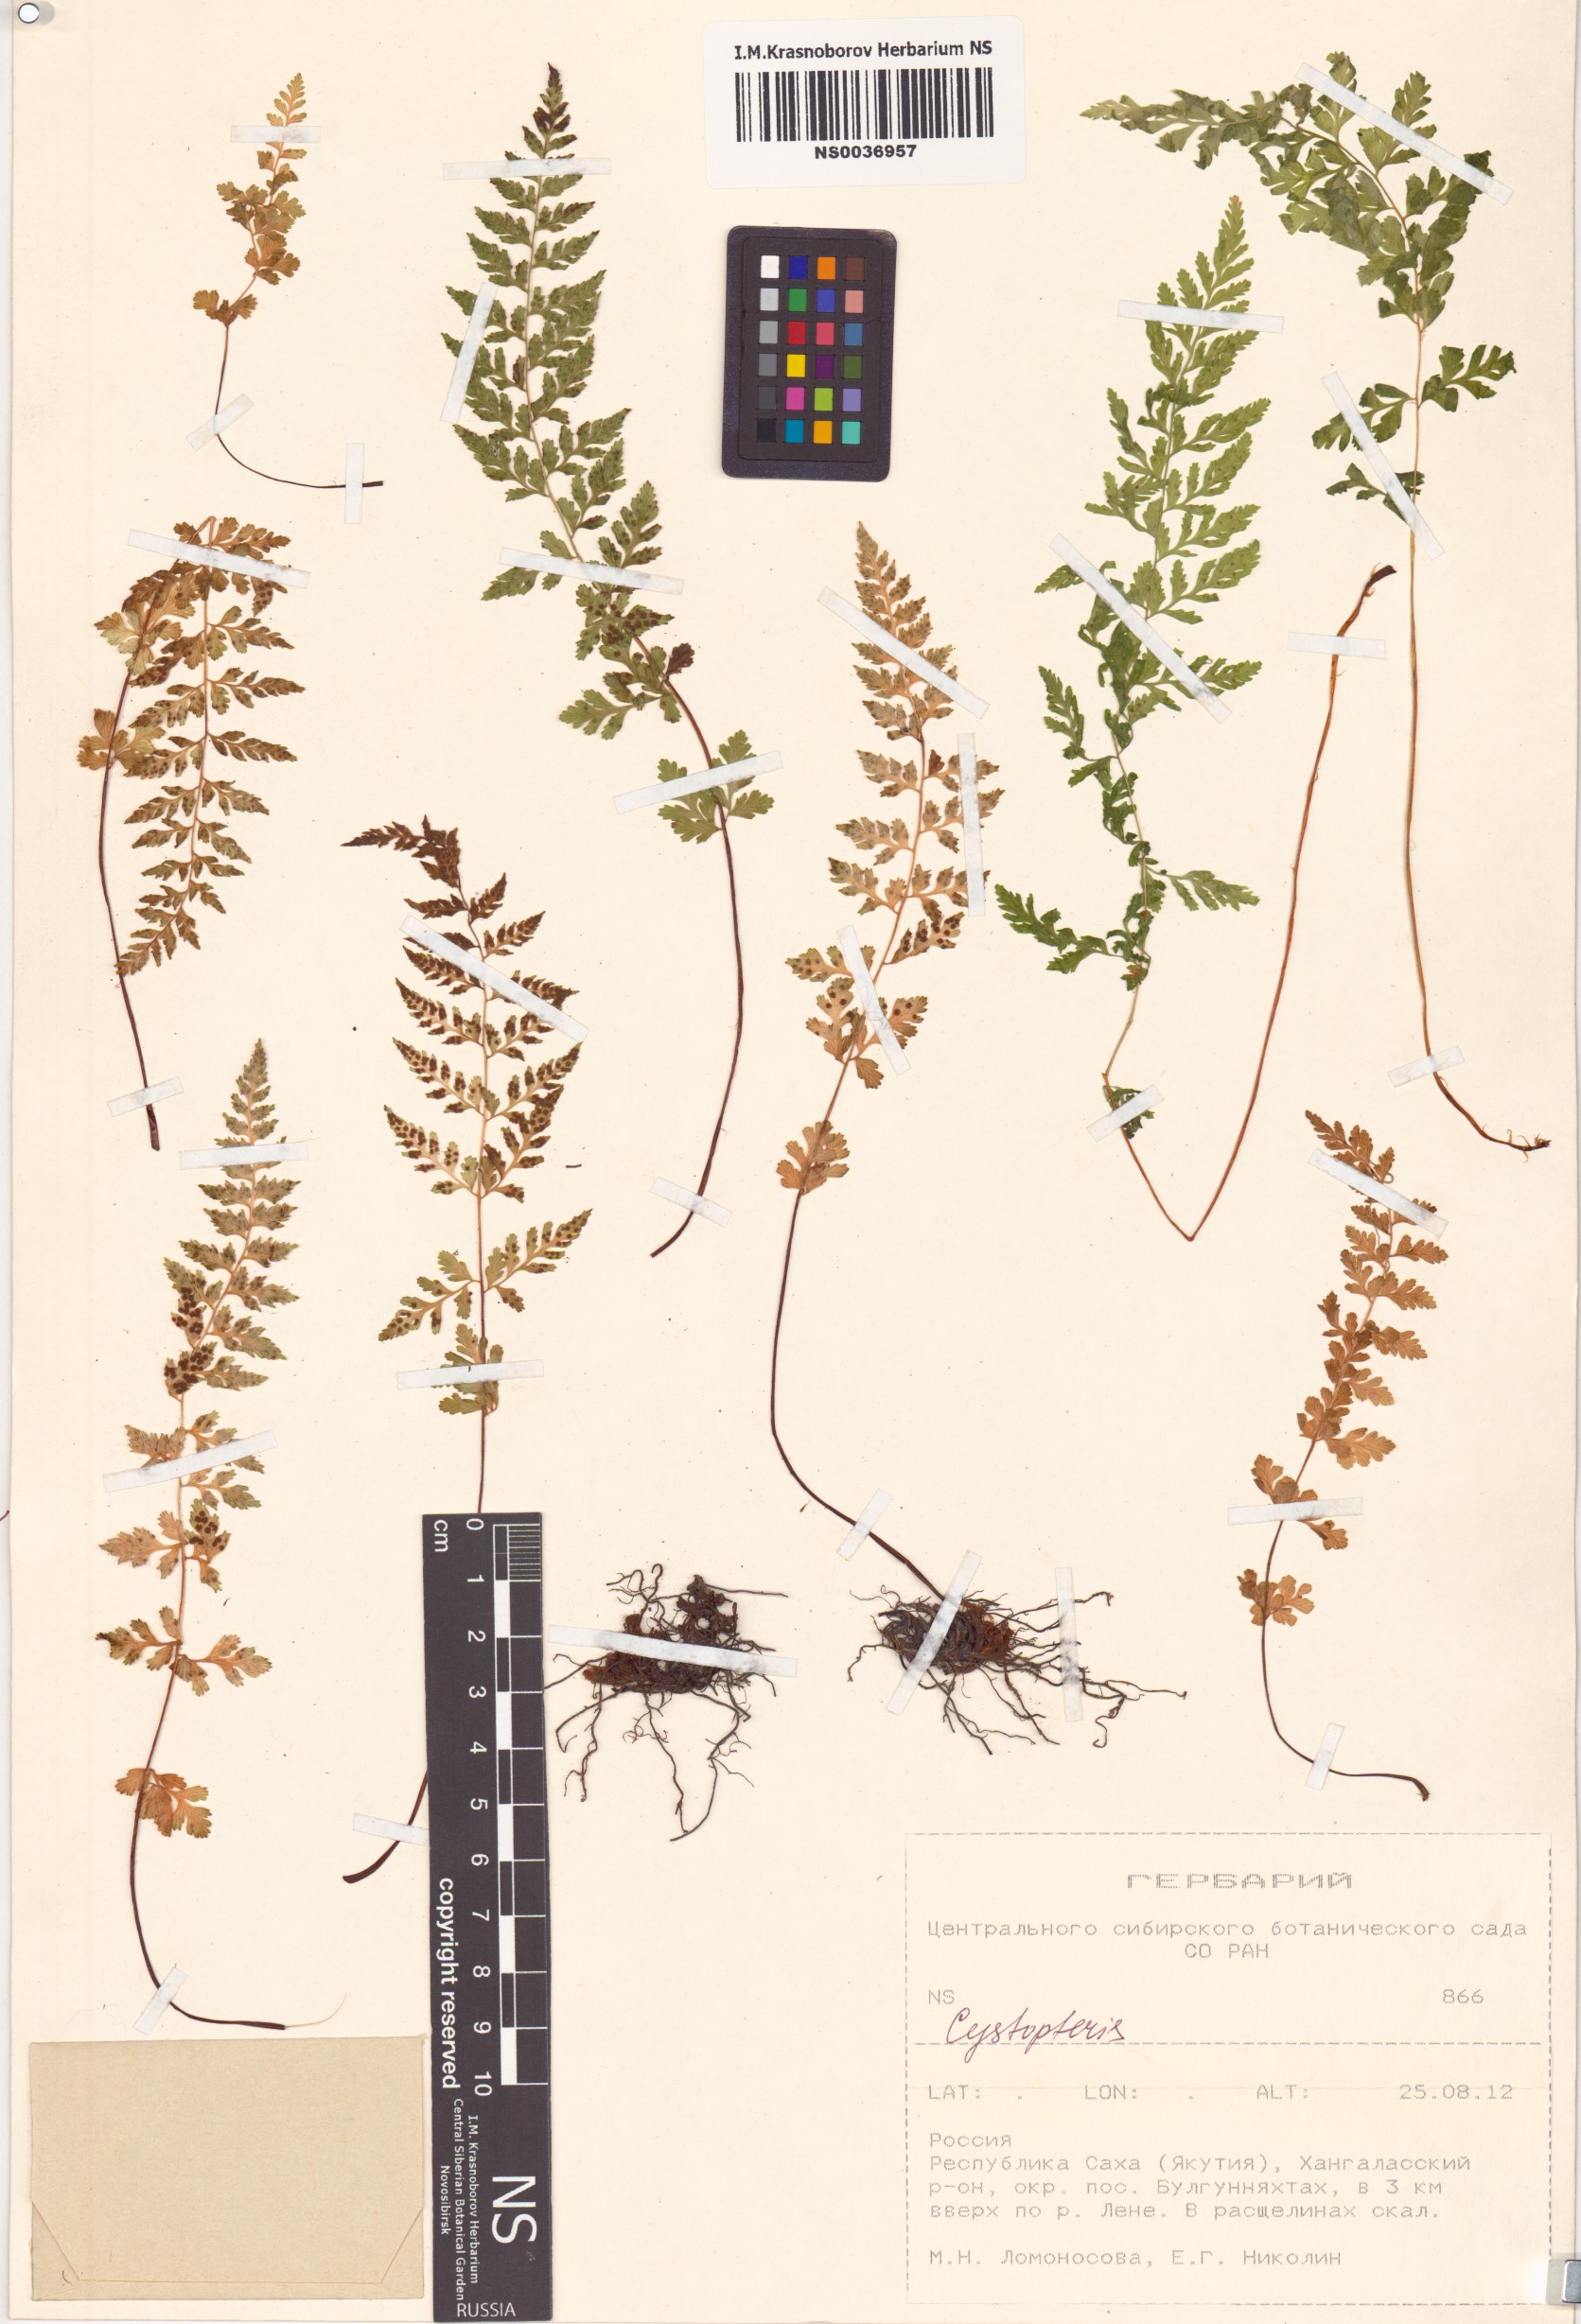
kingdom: Plantae
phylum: Tracheophyta
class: Polypodiopsida
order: Polypodiales
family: Cystopteridaceae
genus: Cystopteris
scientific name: Cystopteris
